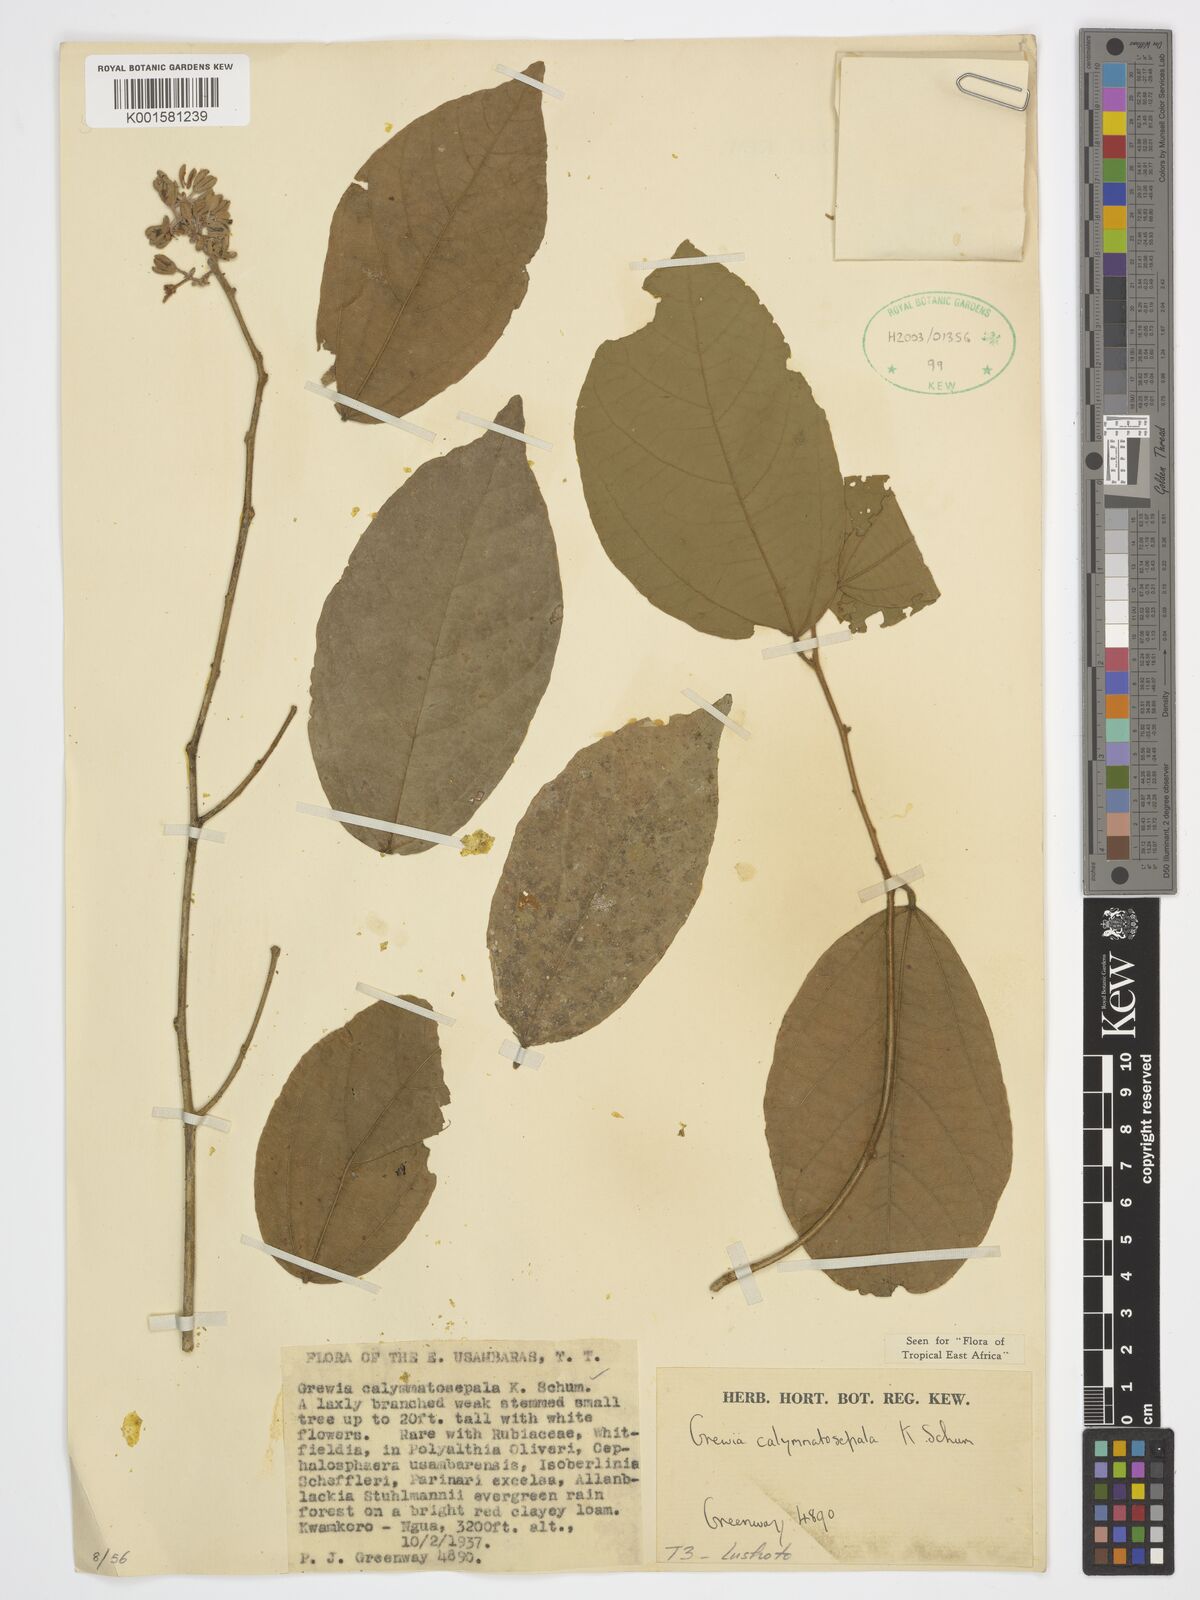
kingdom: Plantae
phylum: Tracheophyta
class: Magnoliopsida
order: Malvales
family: Malvaceae
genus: Microcos
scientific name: Microcos calymmatosepala
